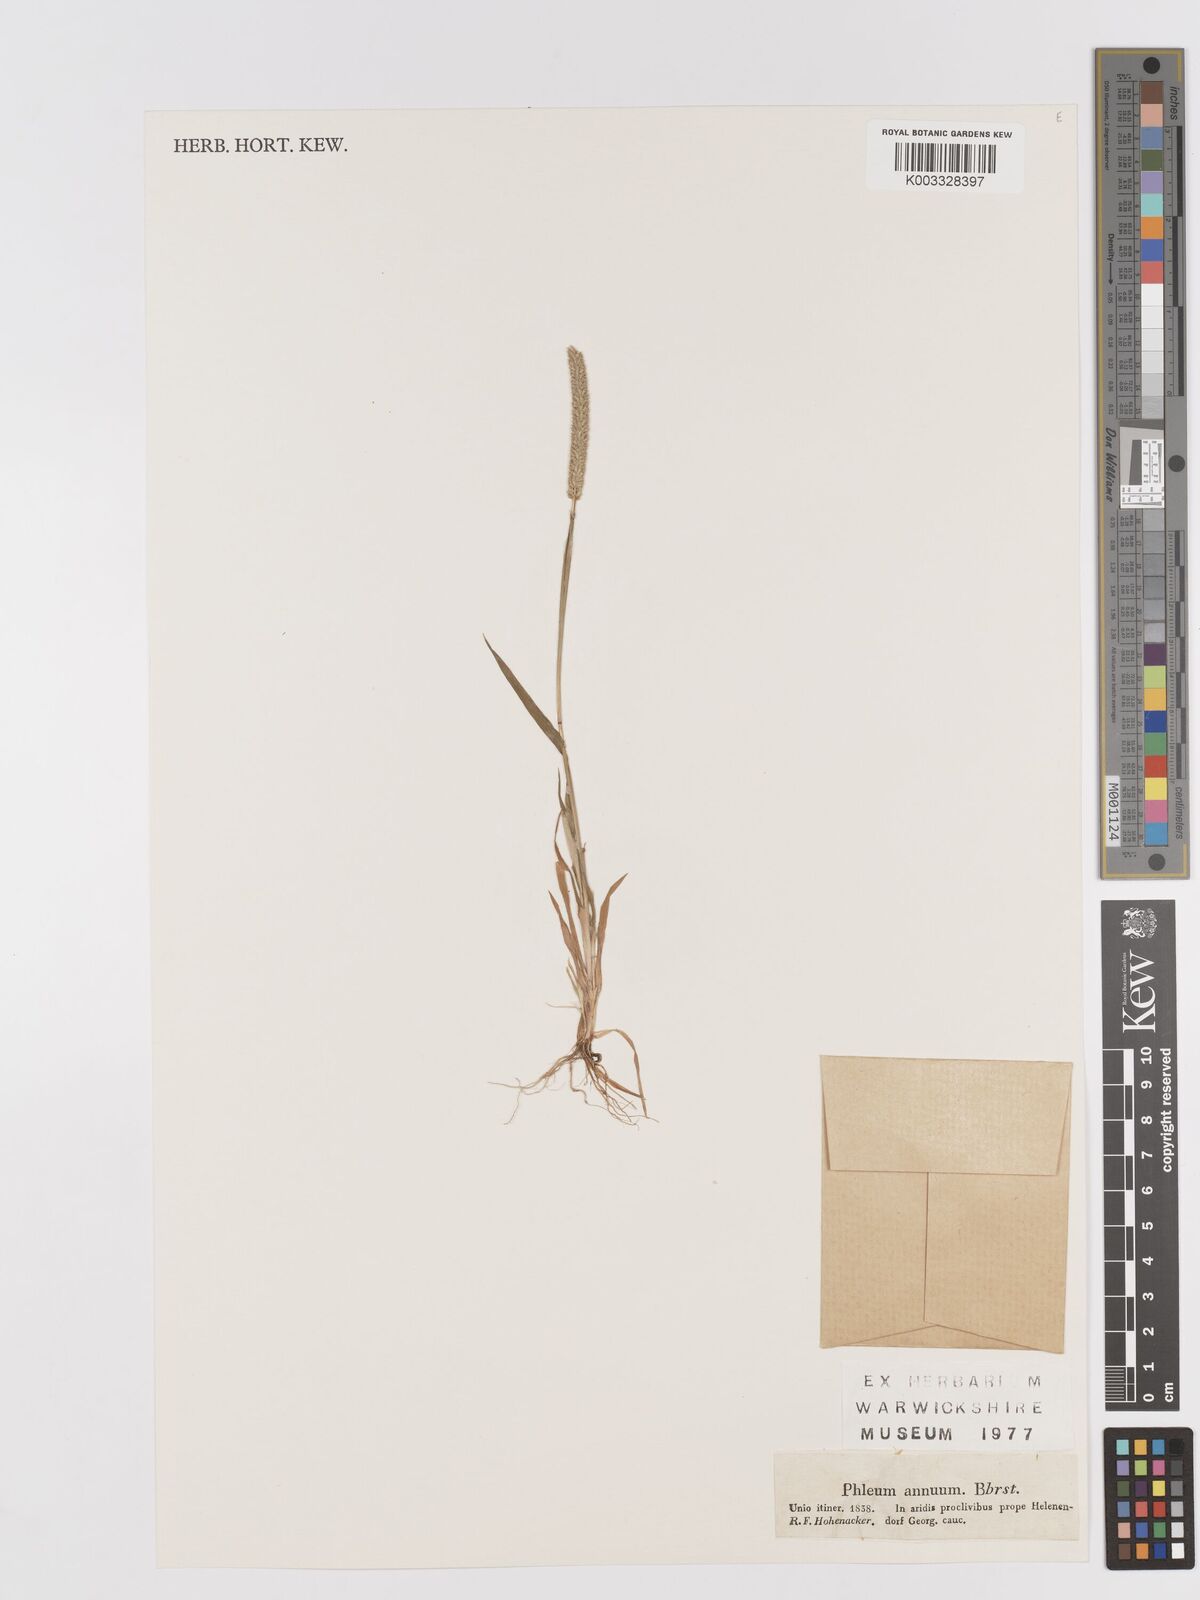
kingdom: Plantae
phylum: Tracheophyta
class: Liliopsida
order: Poales
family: Poaceae
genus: Phleum
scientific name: Phleum paniculatum
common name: British timothy
